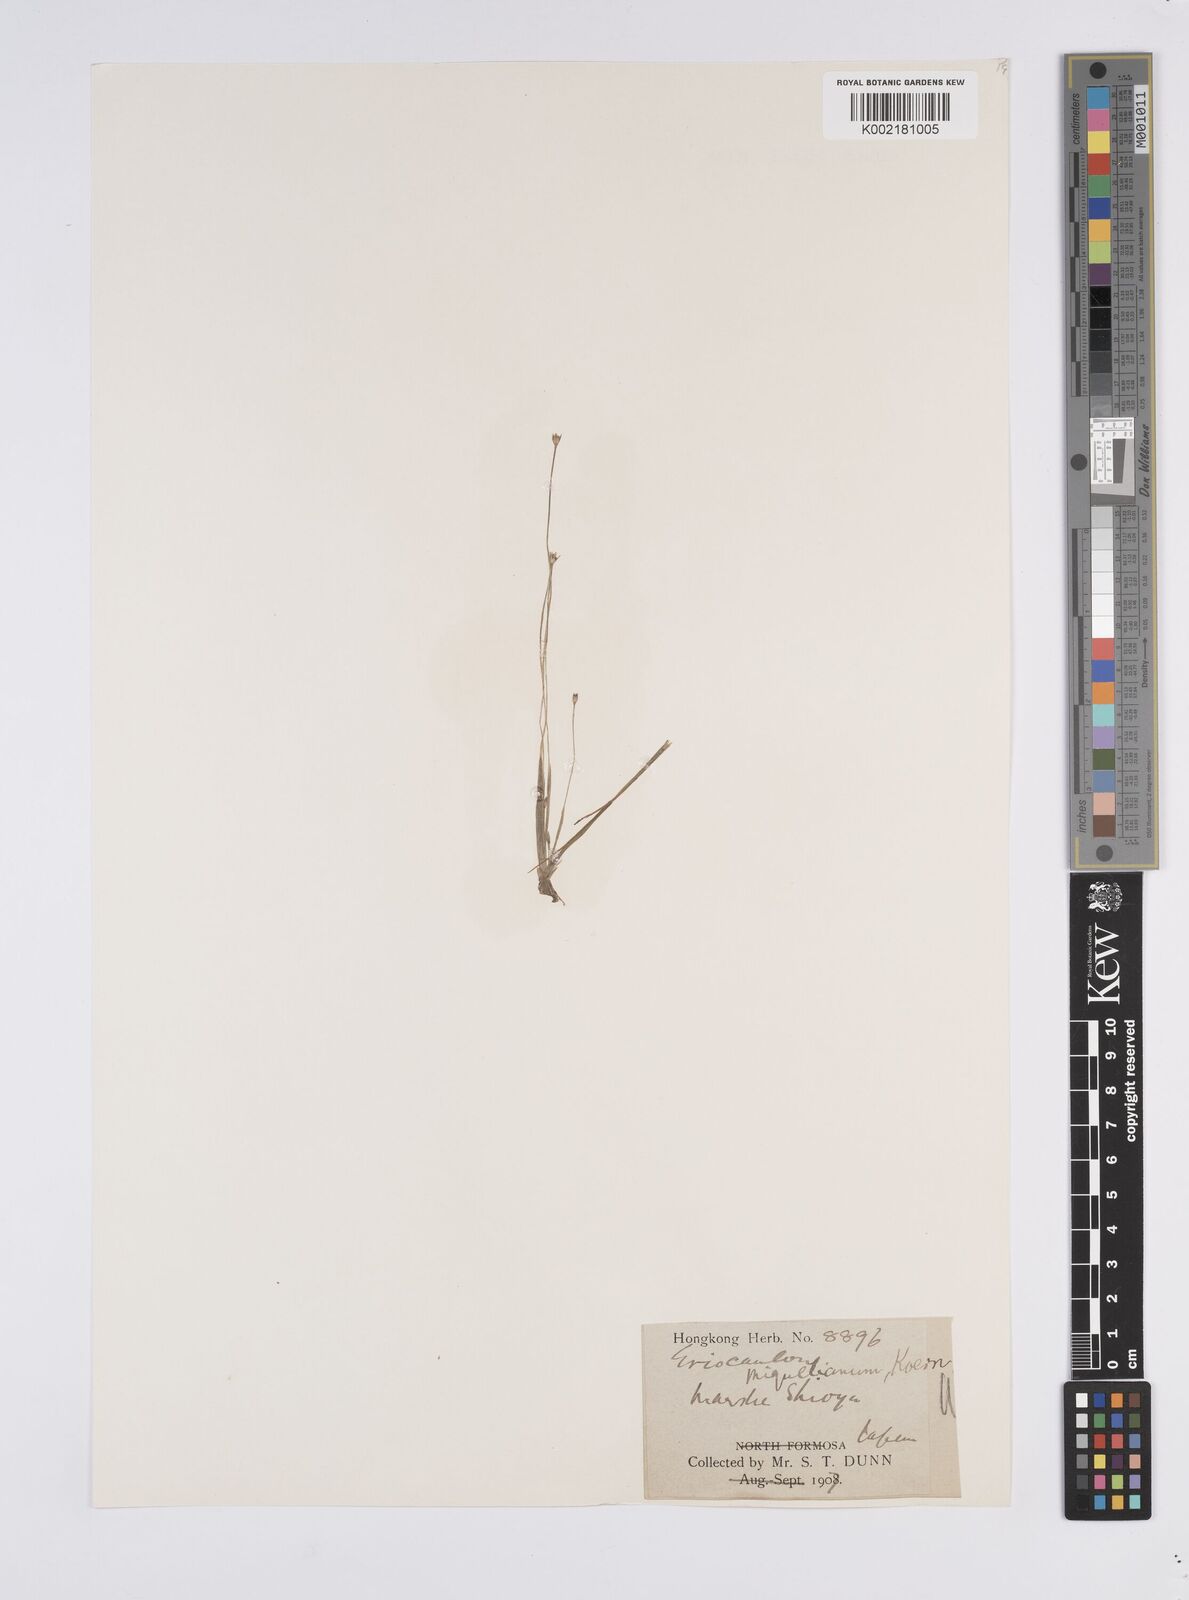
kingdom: Plantae
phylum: Tracheophyta
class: Liliopsida
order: Poales
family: Eriocaulaceae
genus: Eriocaulon
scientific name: Eriocaulon miquelianum
